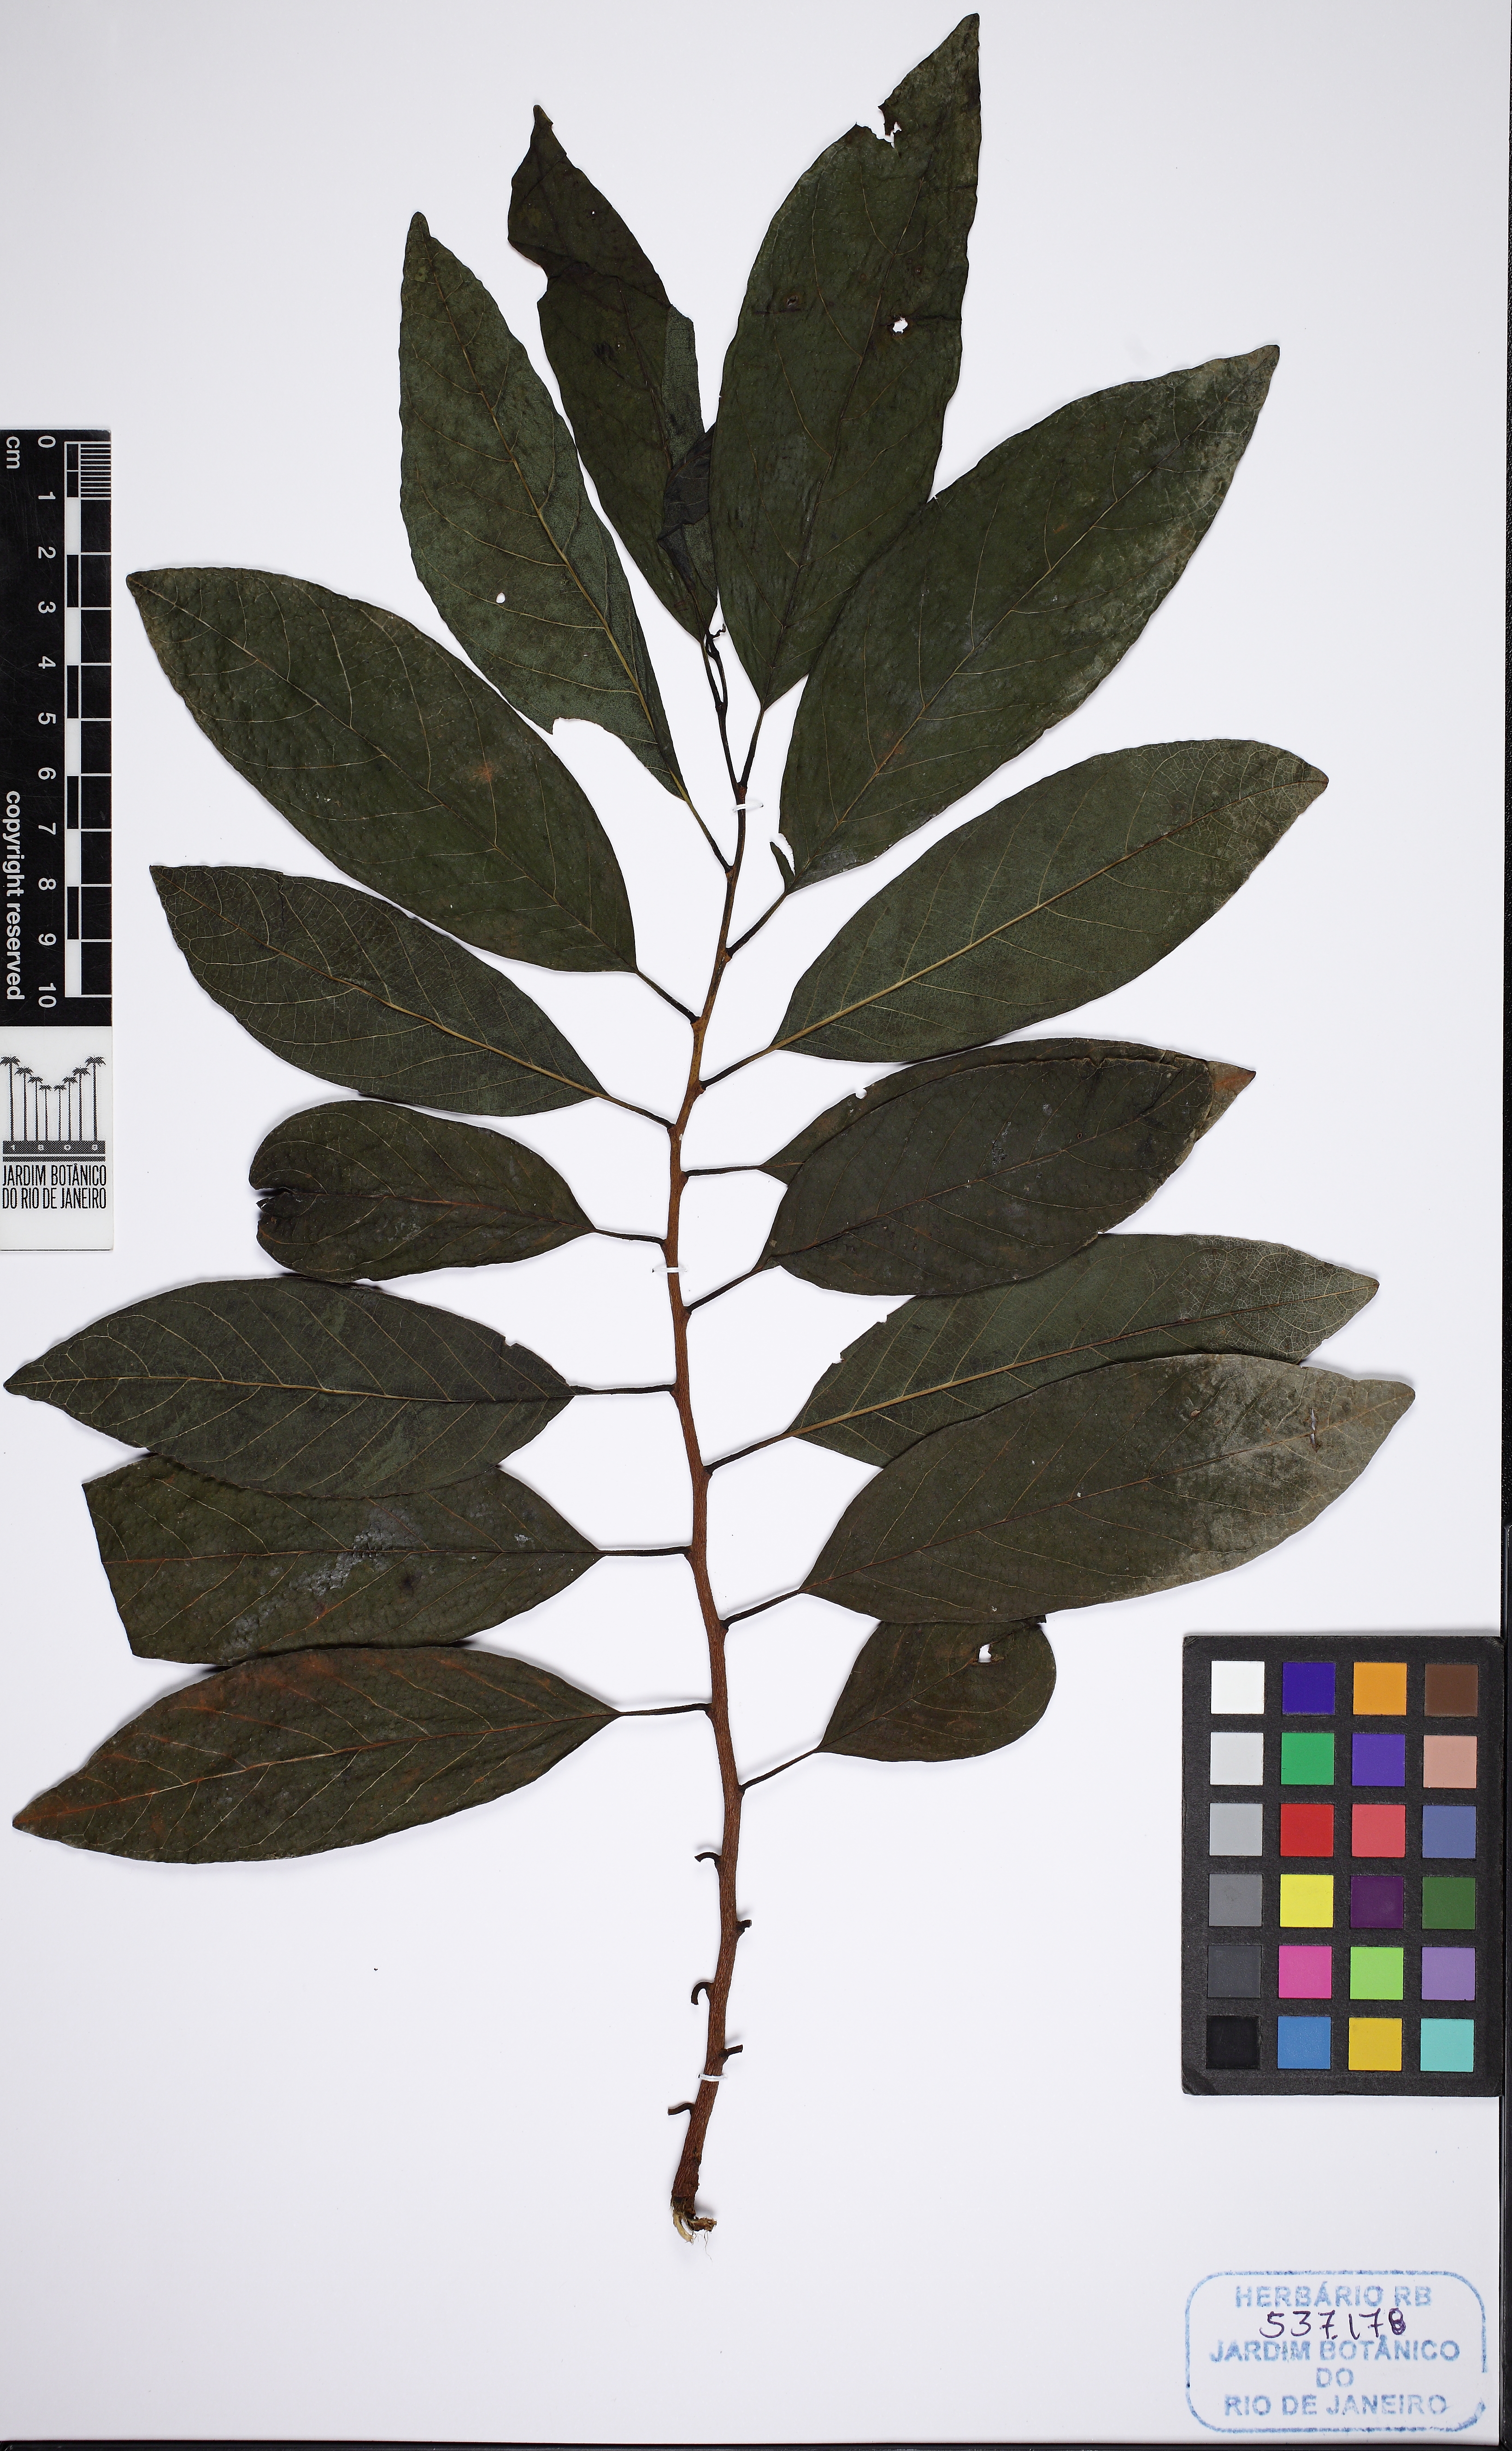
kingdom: Plantae
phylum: Tracheophyta
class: Magnoliopsida
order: Magnoliales
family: Annonaceae
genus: Annona
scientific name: Annona squamosa
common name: Custard-apple
